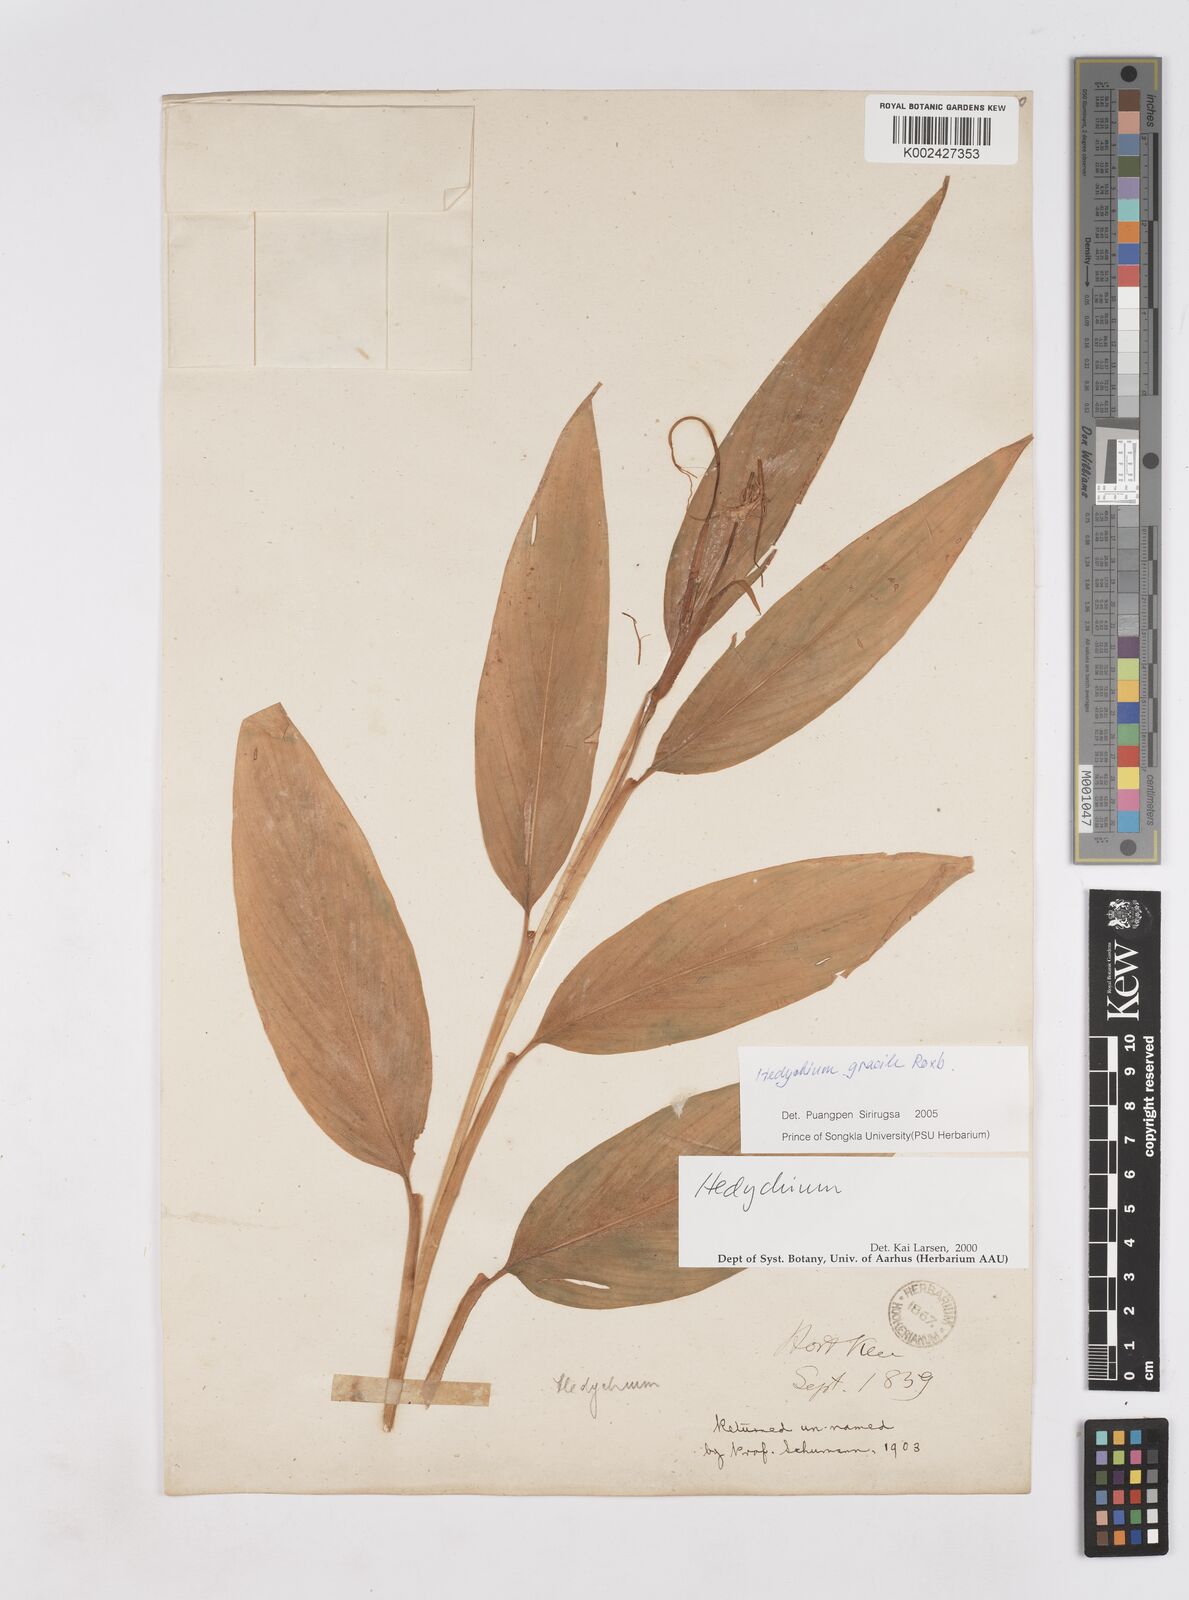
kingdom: Plantae
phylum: Tracheophyta
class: Liliopsida
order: Zingiberales
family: Zingiberaceae
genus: Hedychium
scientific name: Hedychium gracile
